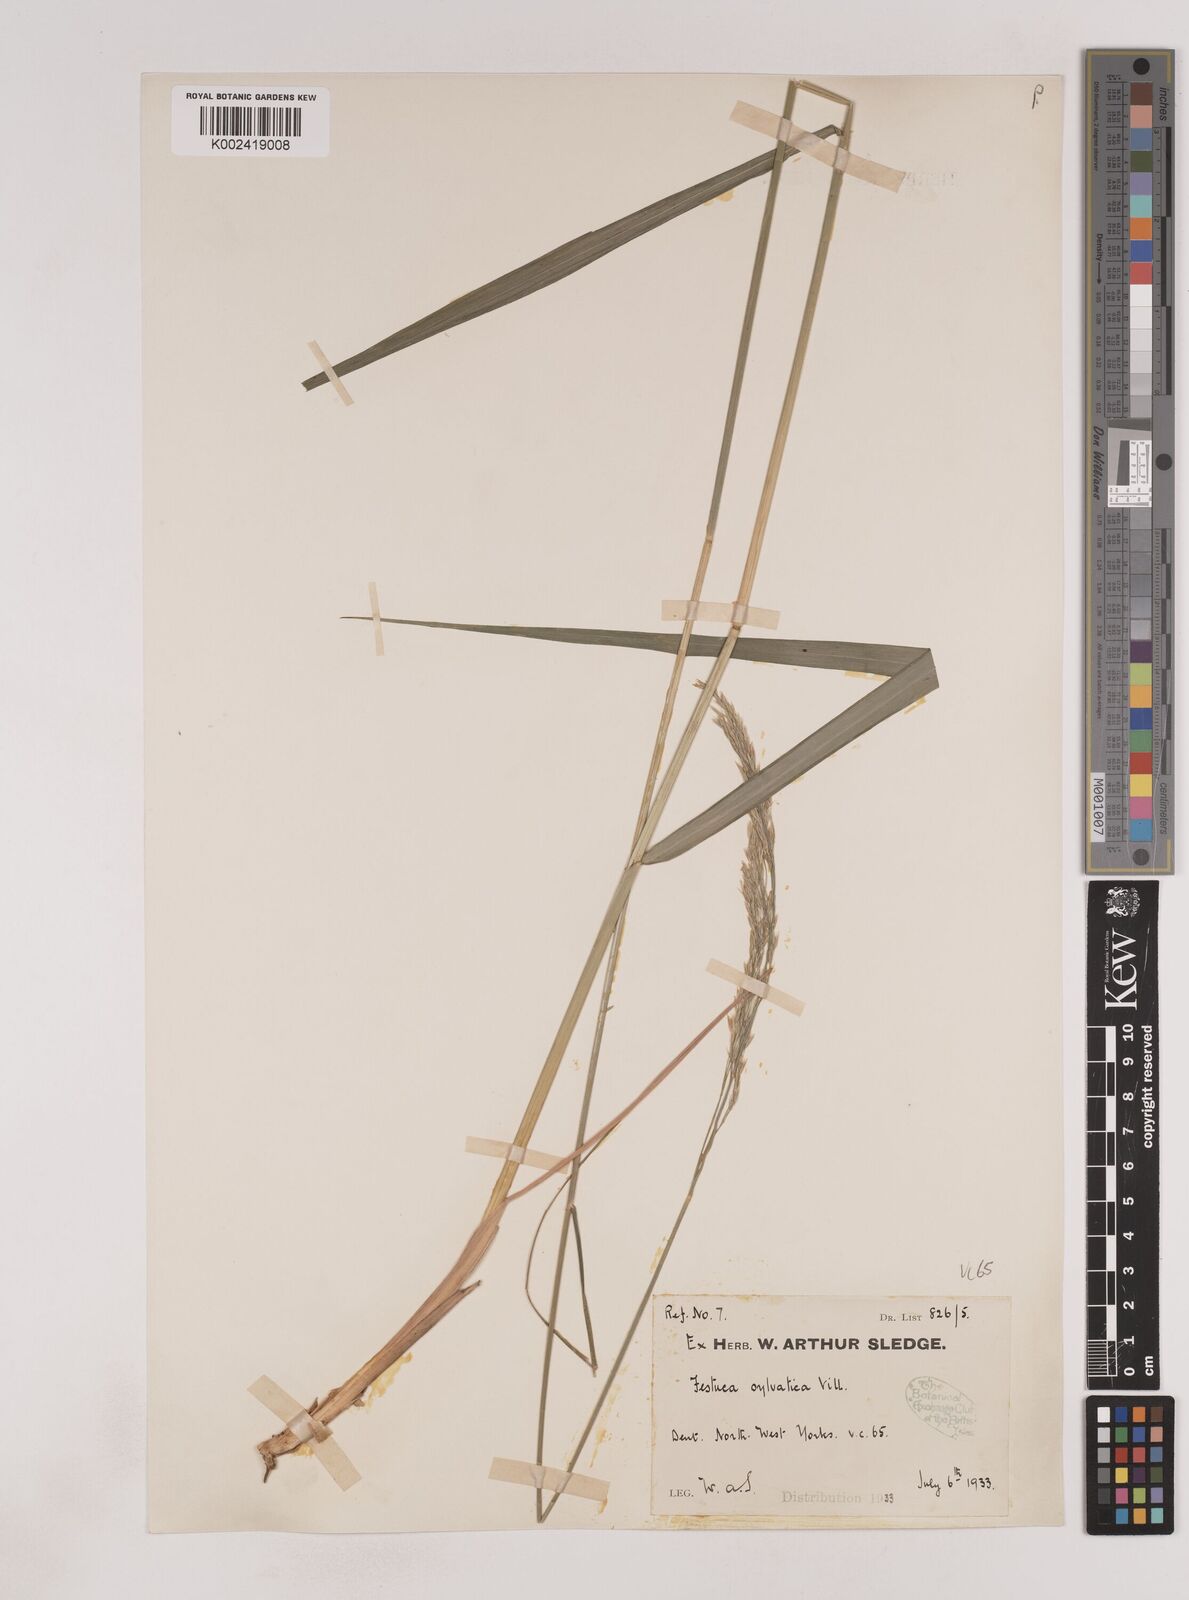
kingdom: Plantae
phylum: Tracheophyta
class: Liliopsida
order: Poales
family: Poaceae
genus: Festuca
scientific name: Festuca drymeja
